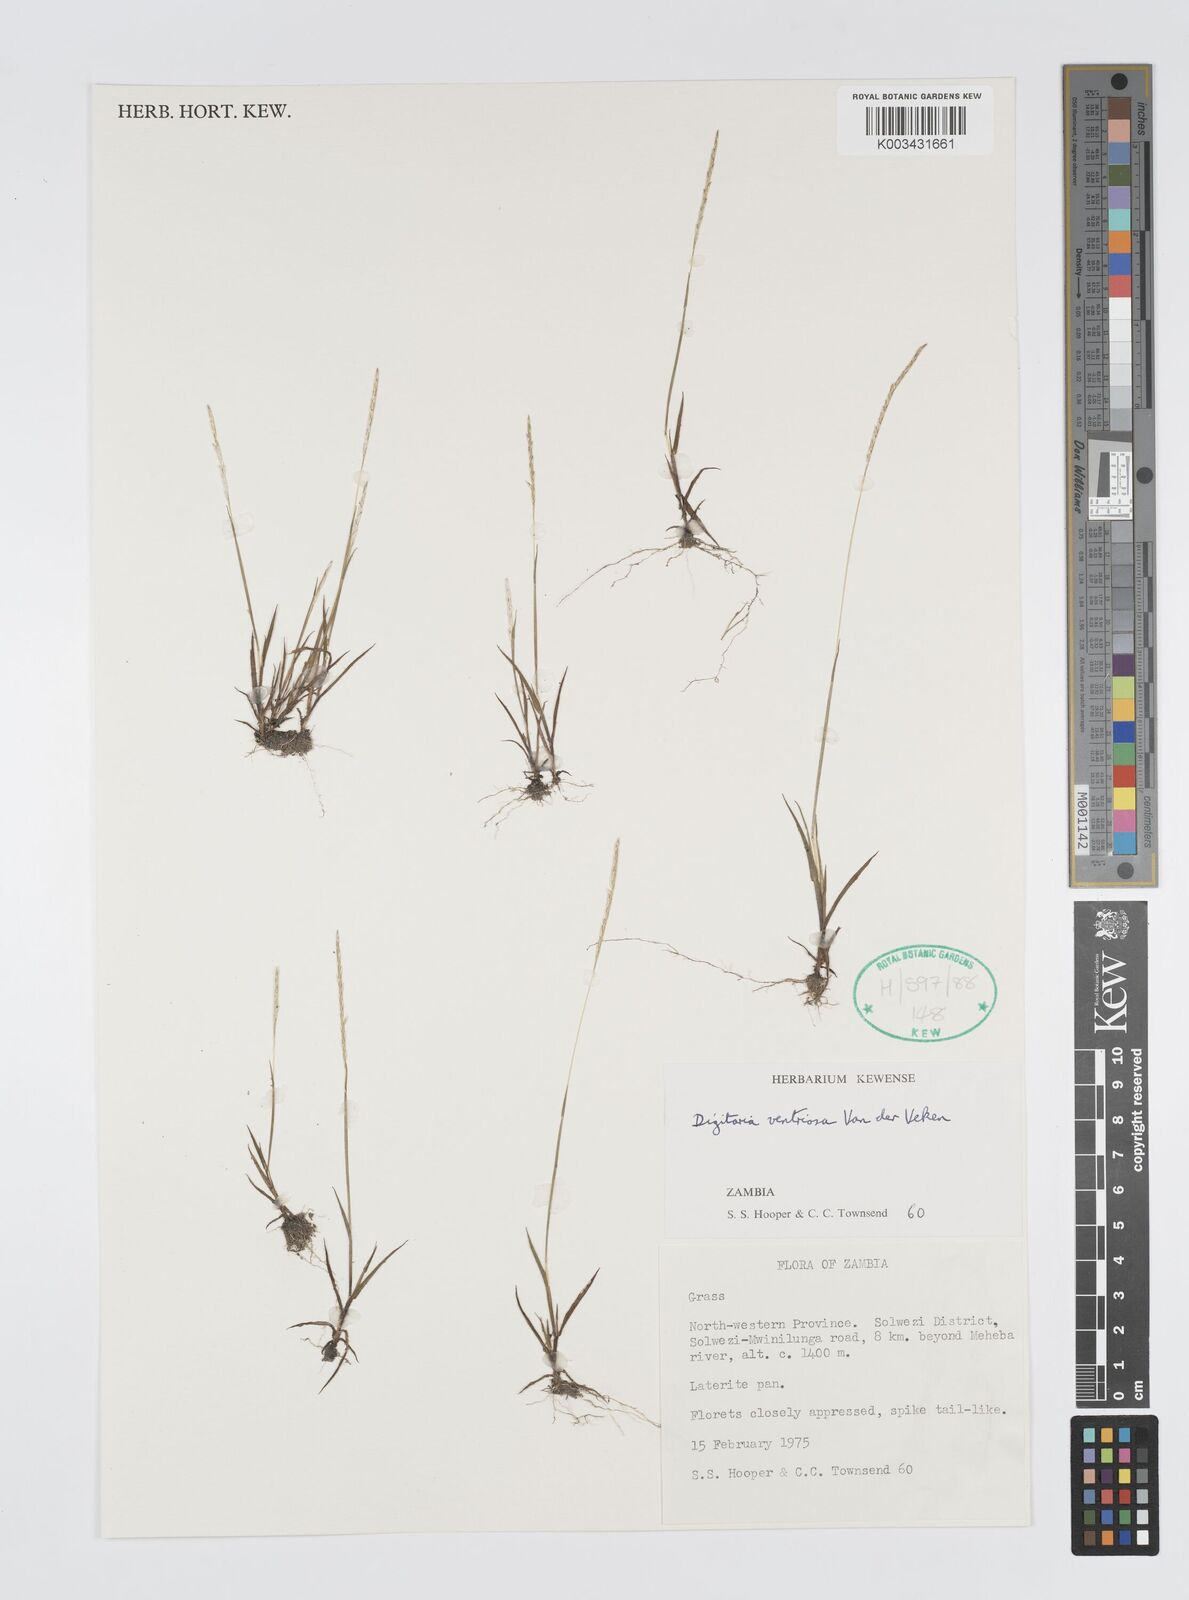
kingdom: Plantae
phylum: Tracheophyta
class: Liliopsida
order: Poales
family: Poaceae
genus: Digitaria
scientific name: Digitaria ventriosa
